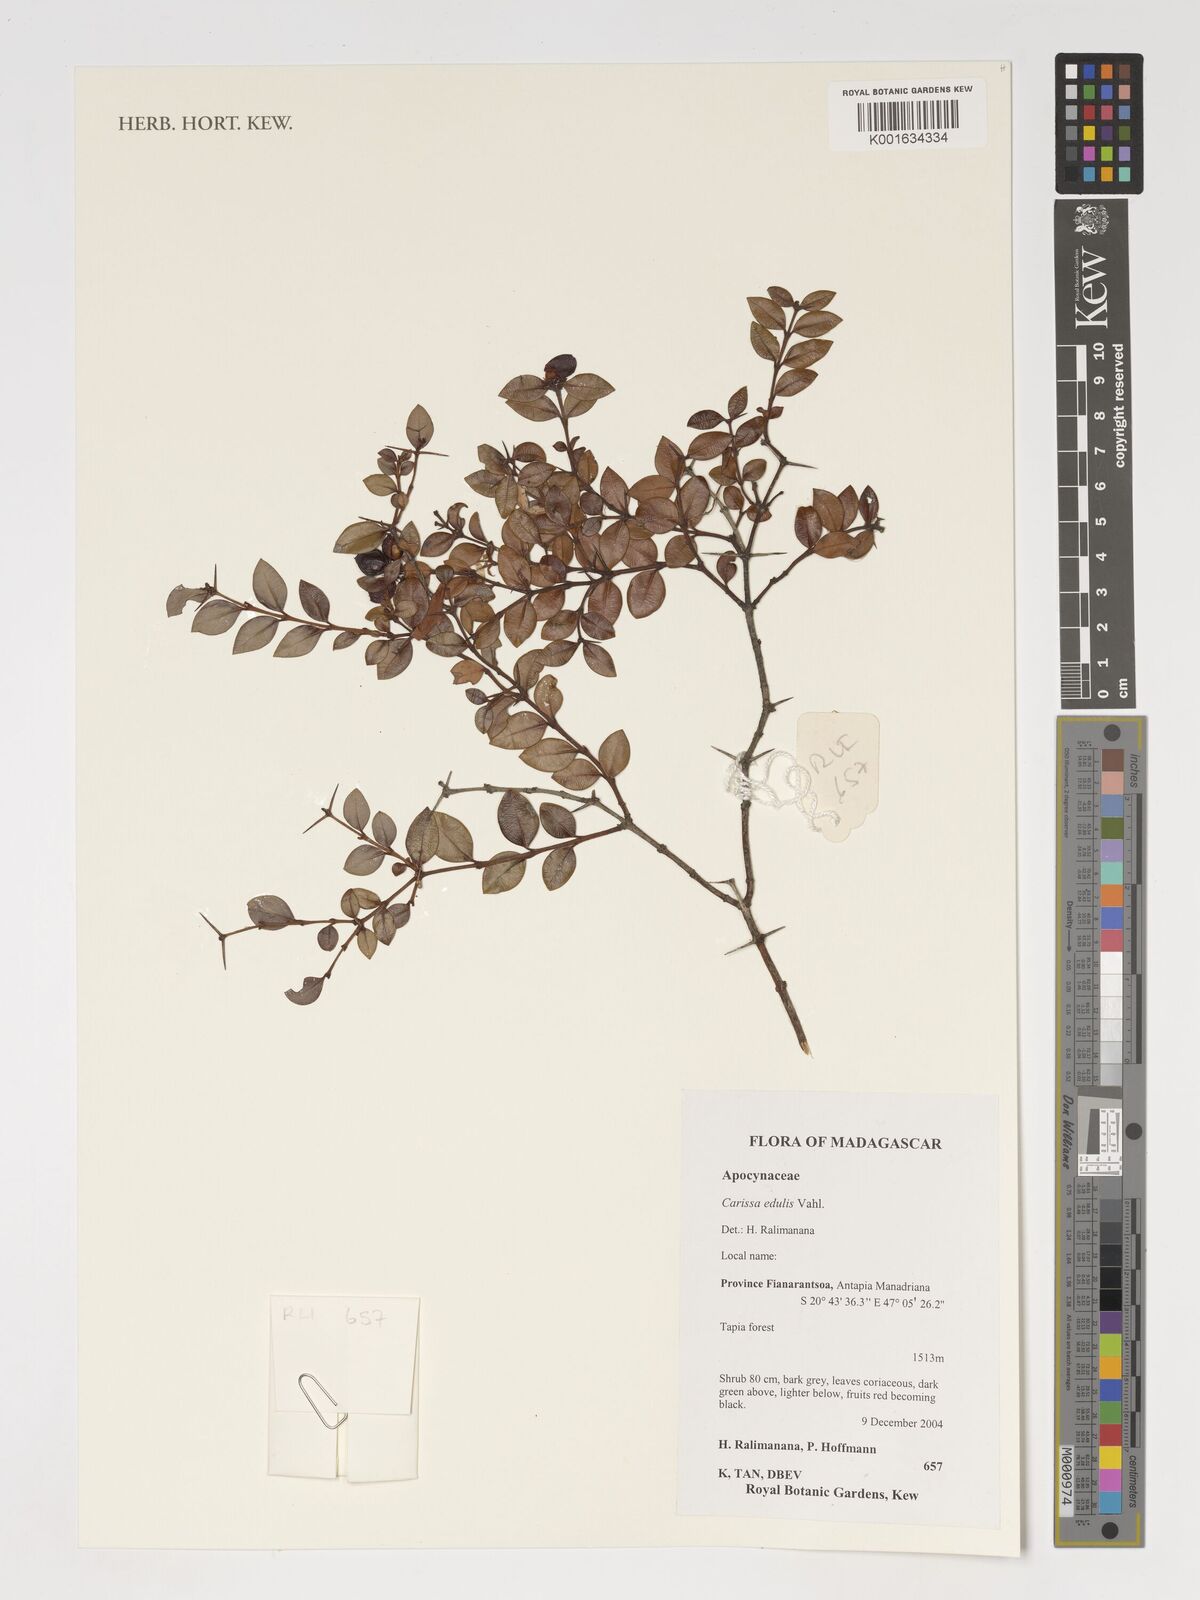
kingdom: Plantae
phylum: Tracheophyta
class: Magnoliopsida
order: Gentianales
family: Apocynaceae
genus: Carissa
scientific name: Carissa spinarum
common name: Egyptian carissa
